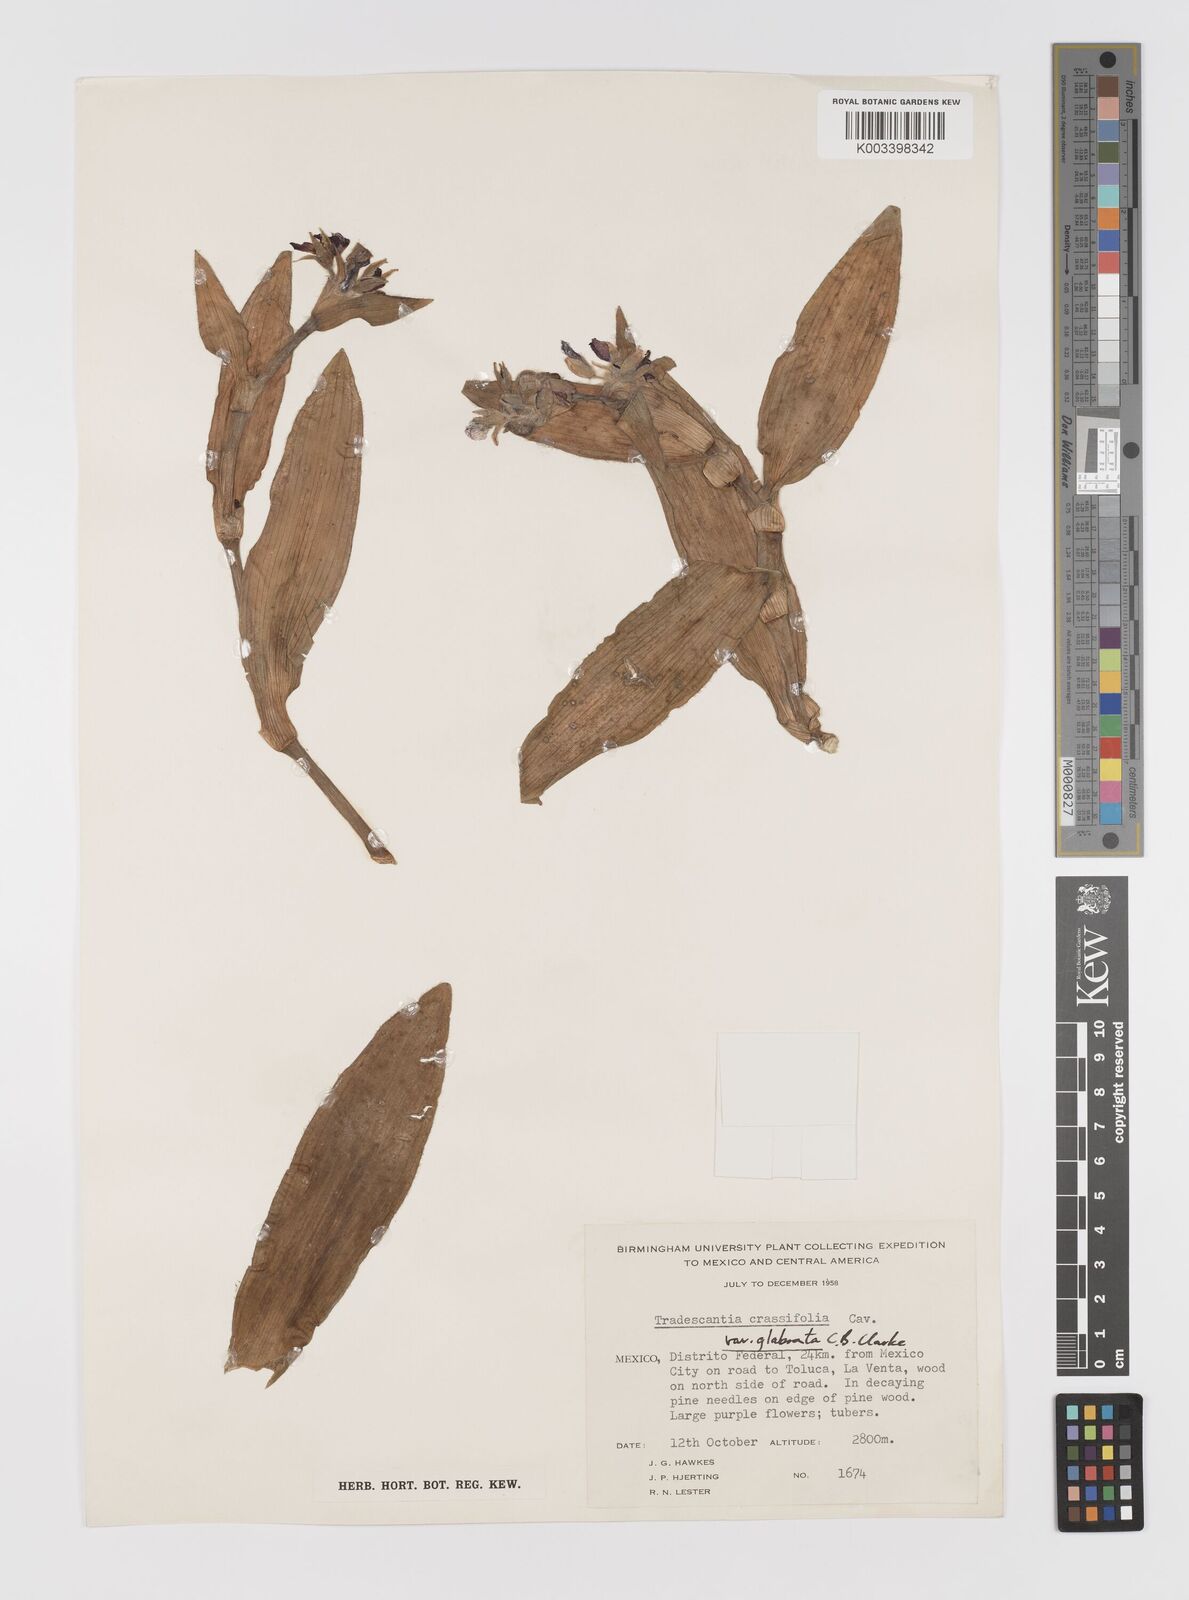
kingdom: Plantae
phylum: Tracheophyta
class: Liliopsida
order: Commelinales
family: Commelinaceae
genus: Tradescantia
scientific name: Tradescantia crassifolia
